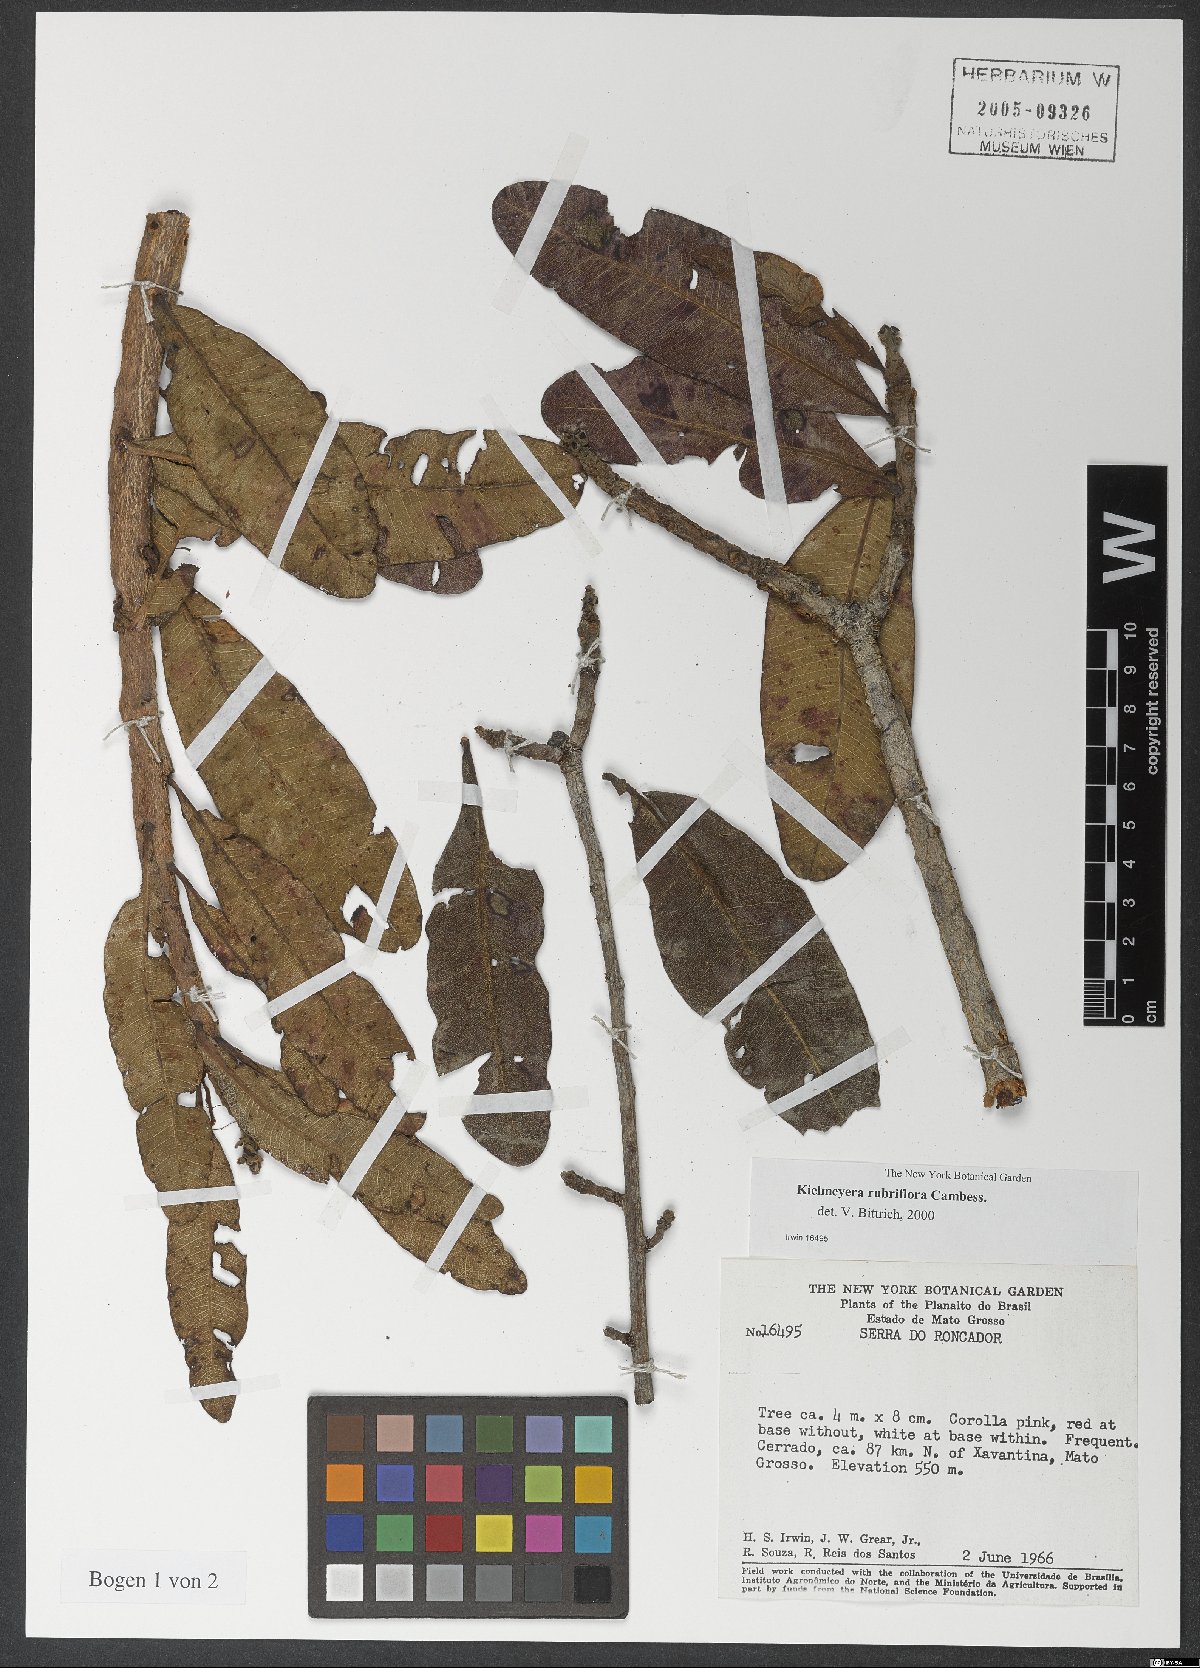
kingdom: Plantae
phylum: Tracheophyta
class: Magnoliopsida
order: Malpighiales
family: Calophyllaceae
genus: Kielmeyera
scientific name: Kielmeyera rubriflora
